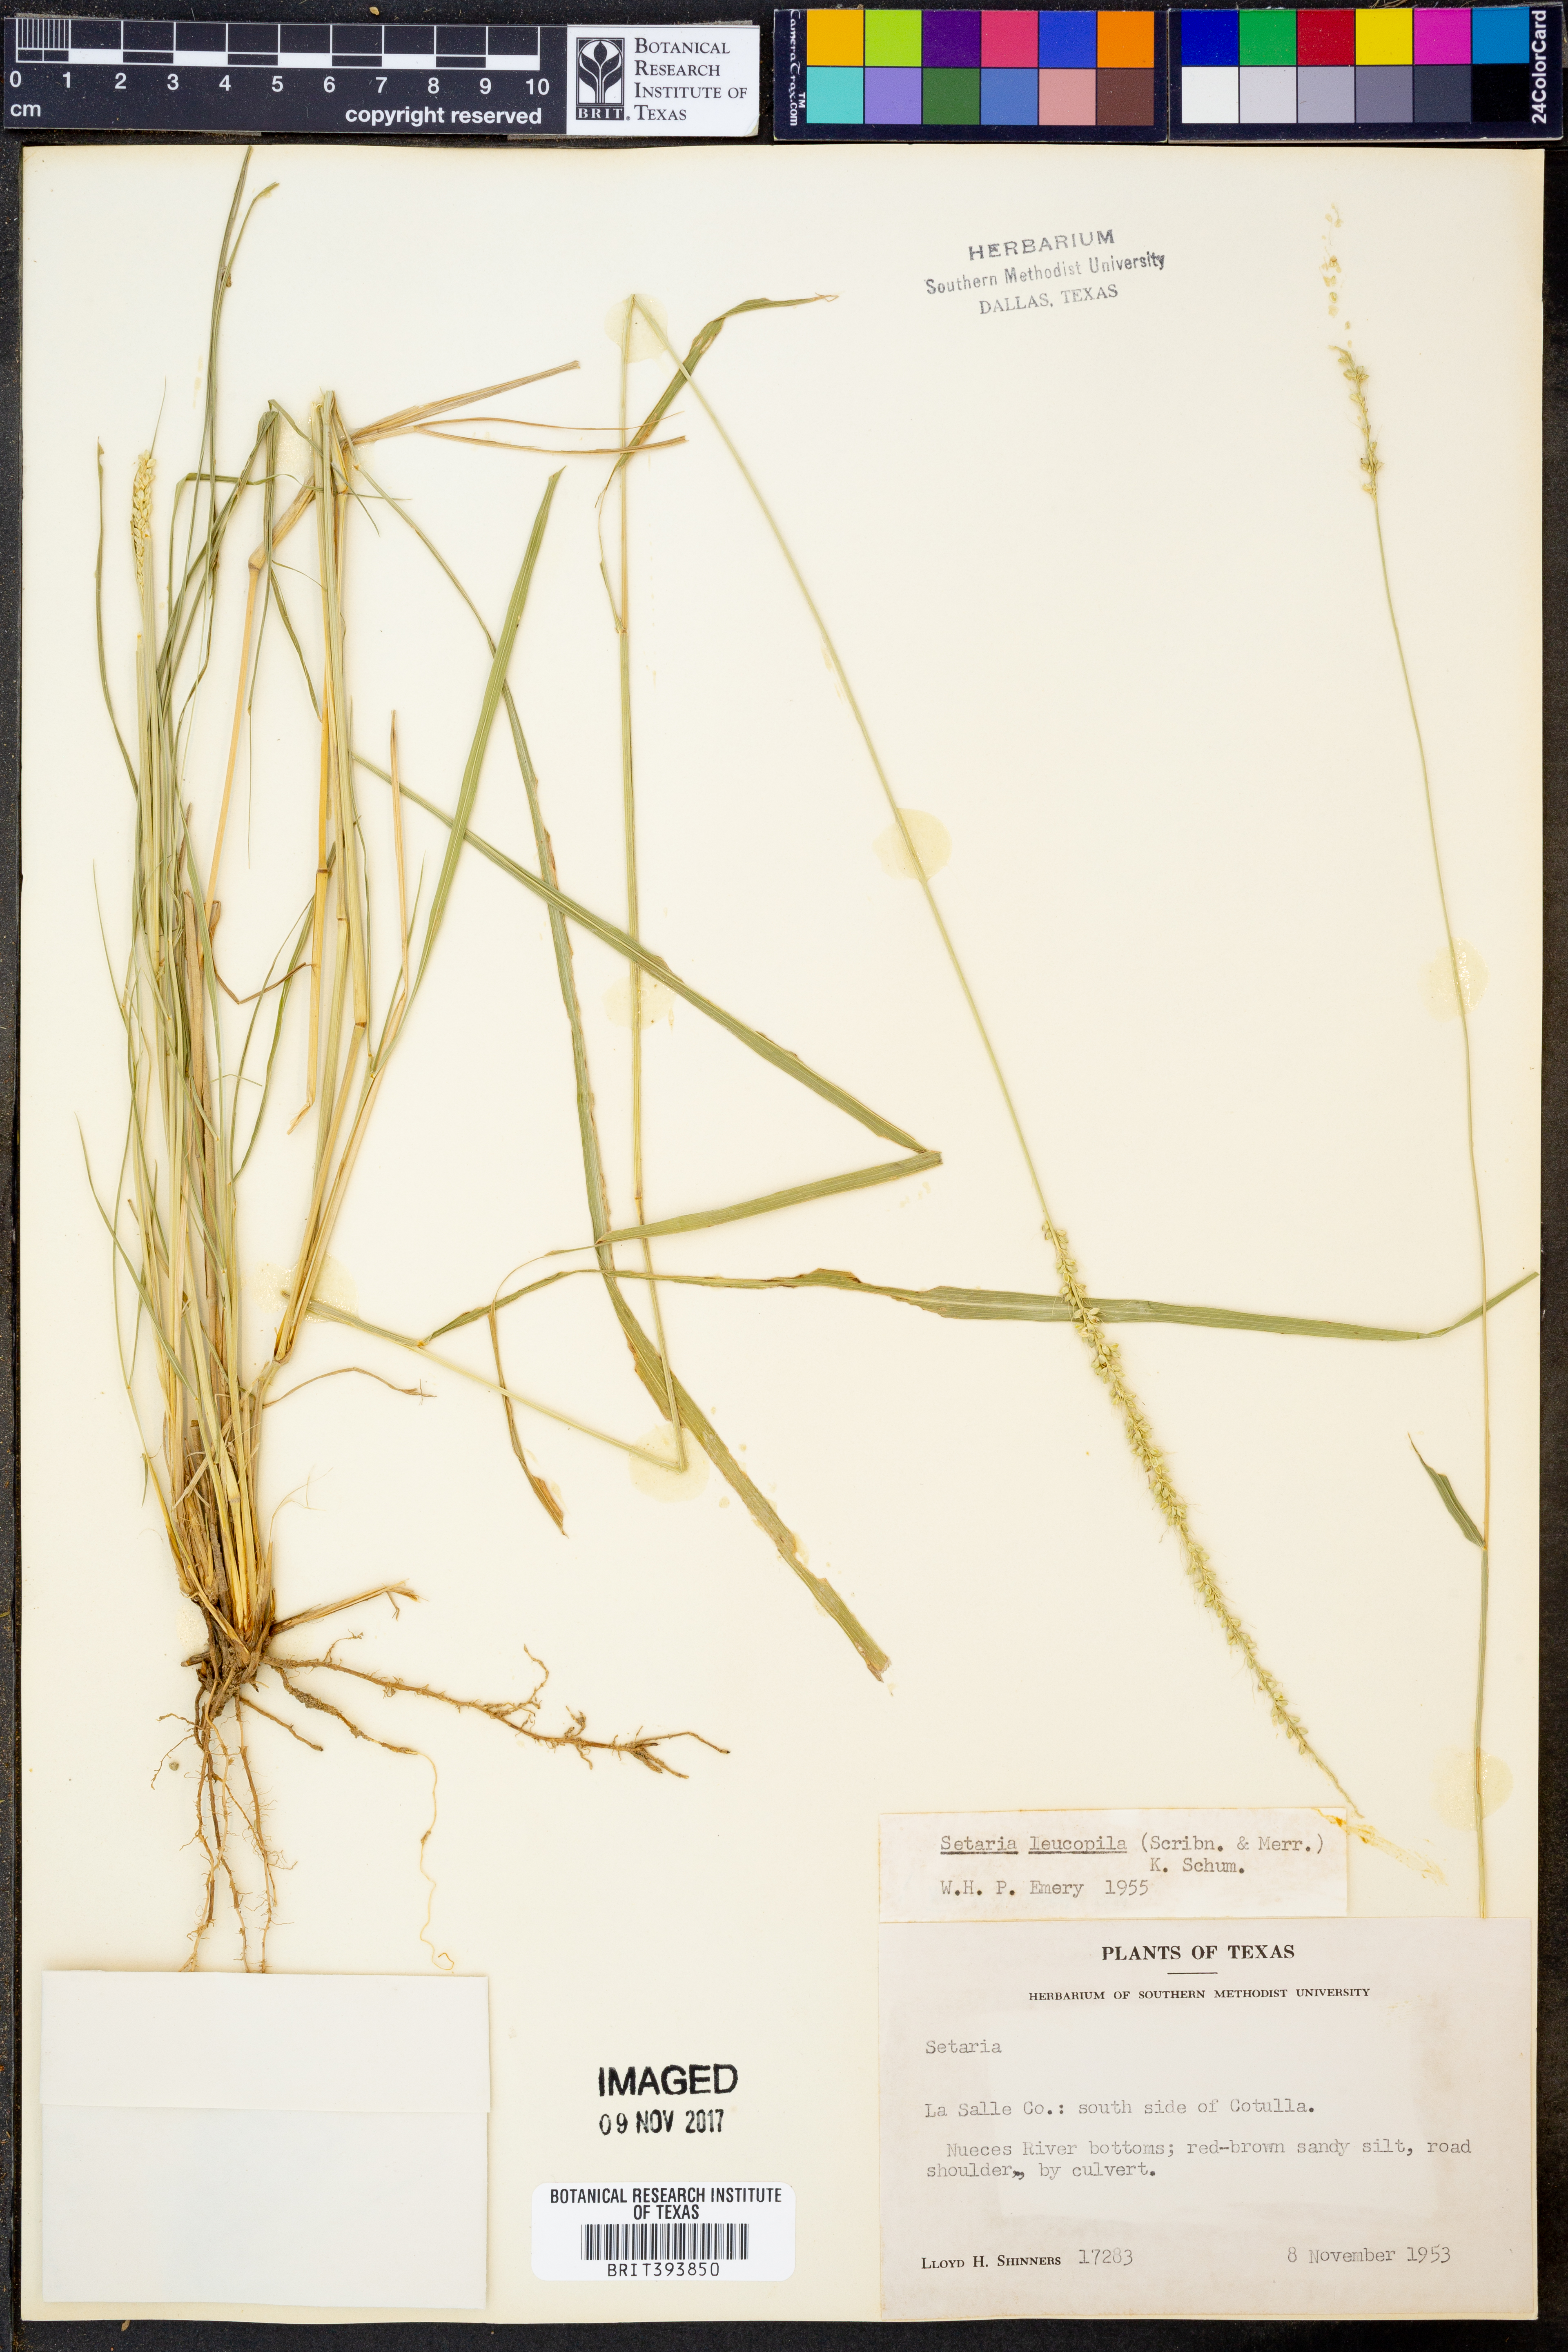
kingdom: Plantae
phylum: Tracheophyta
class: Liliopsida
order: Poales
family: Poaceae
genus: Setaria
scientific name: Setaria leucopila
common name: Plains bristle grass
